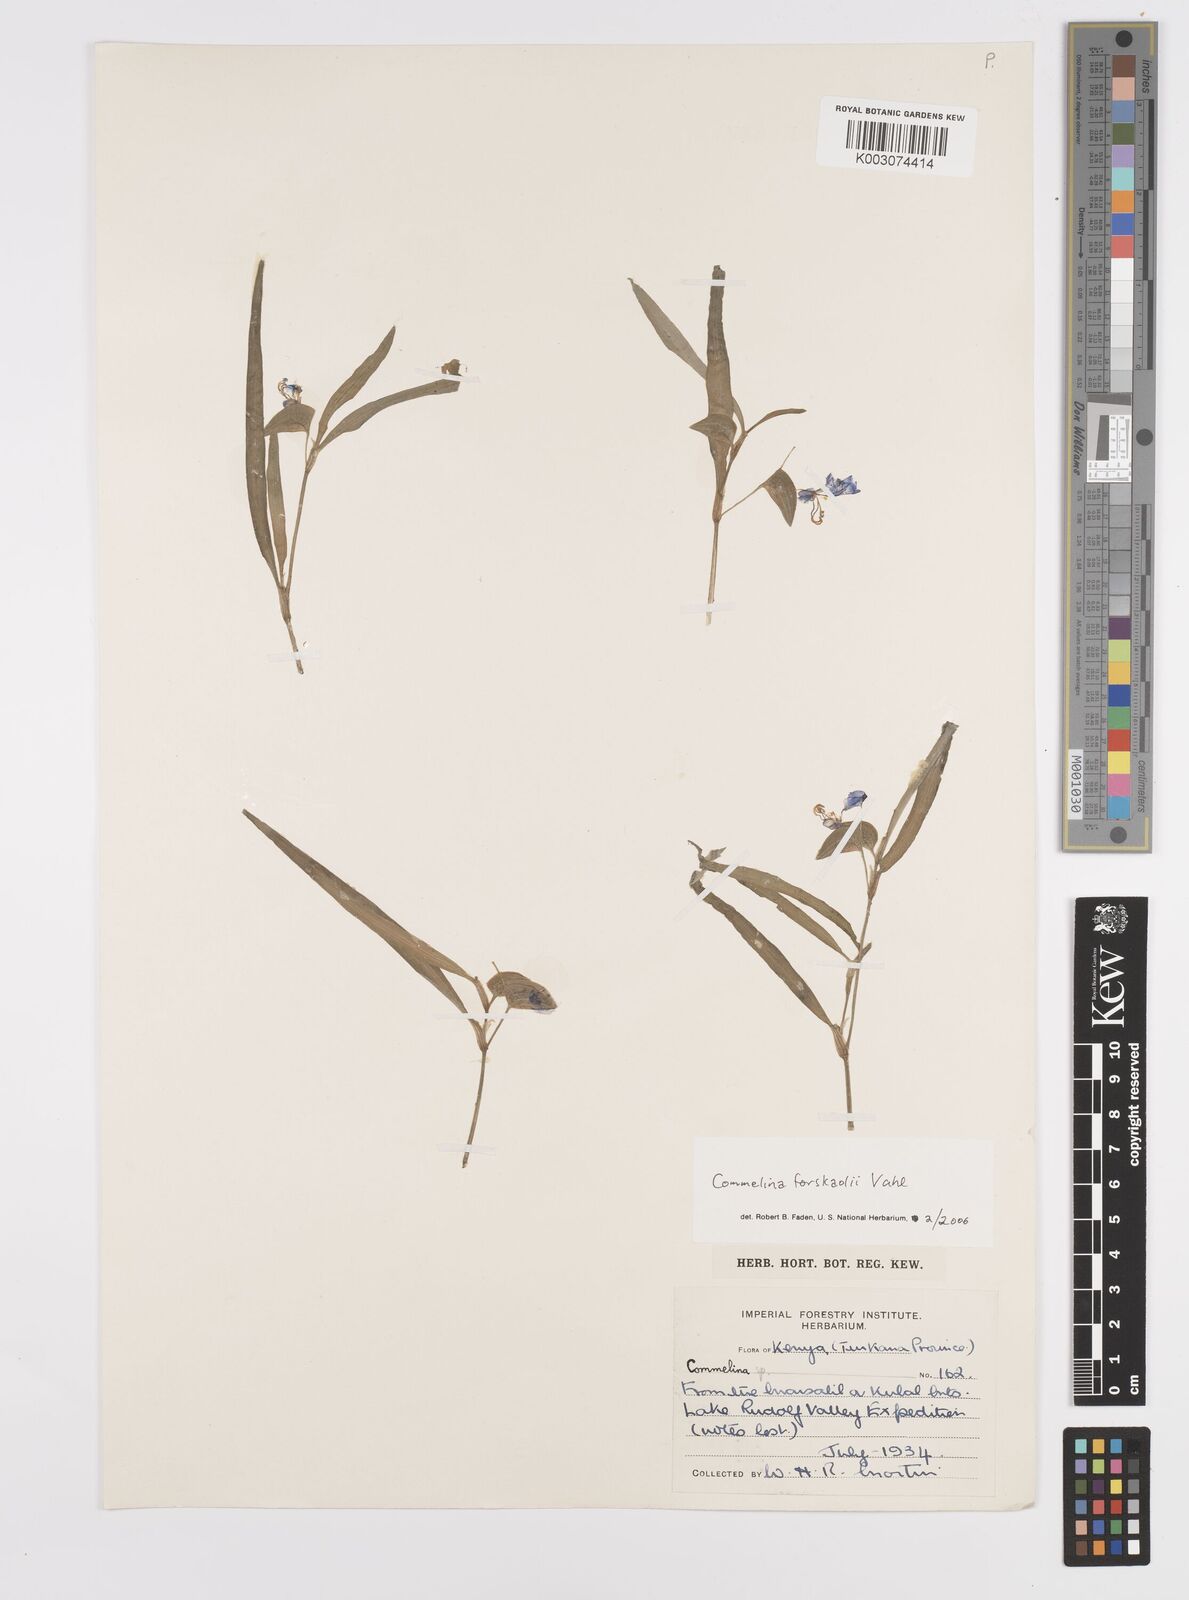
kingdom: Plantae
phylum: Tracheophyta
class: Liliopsida
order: Commelinales
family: Commelinaceae
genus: Commelina
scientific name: Commelina forskaolii
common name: Rat's ear
